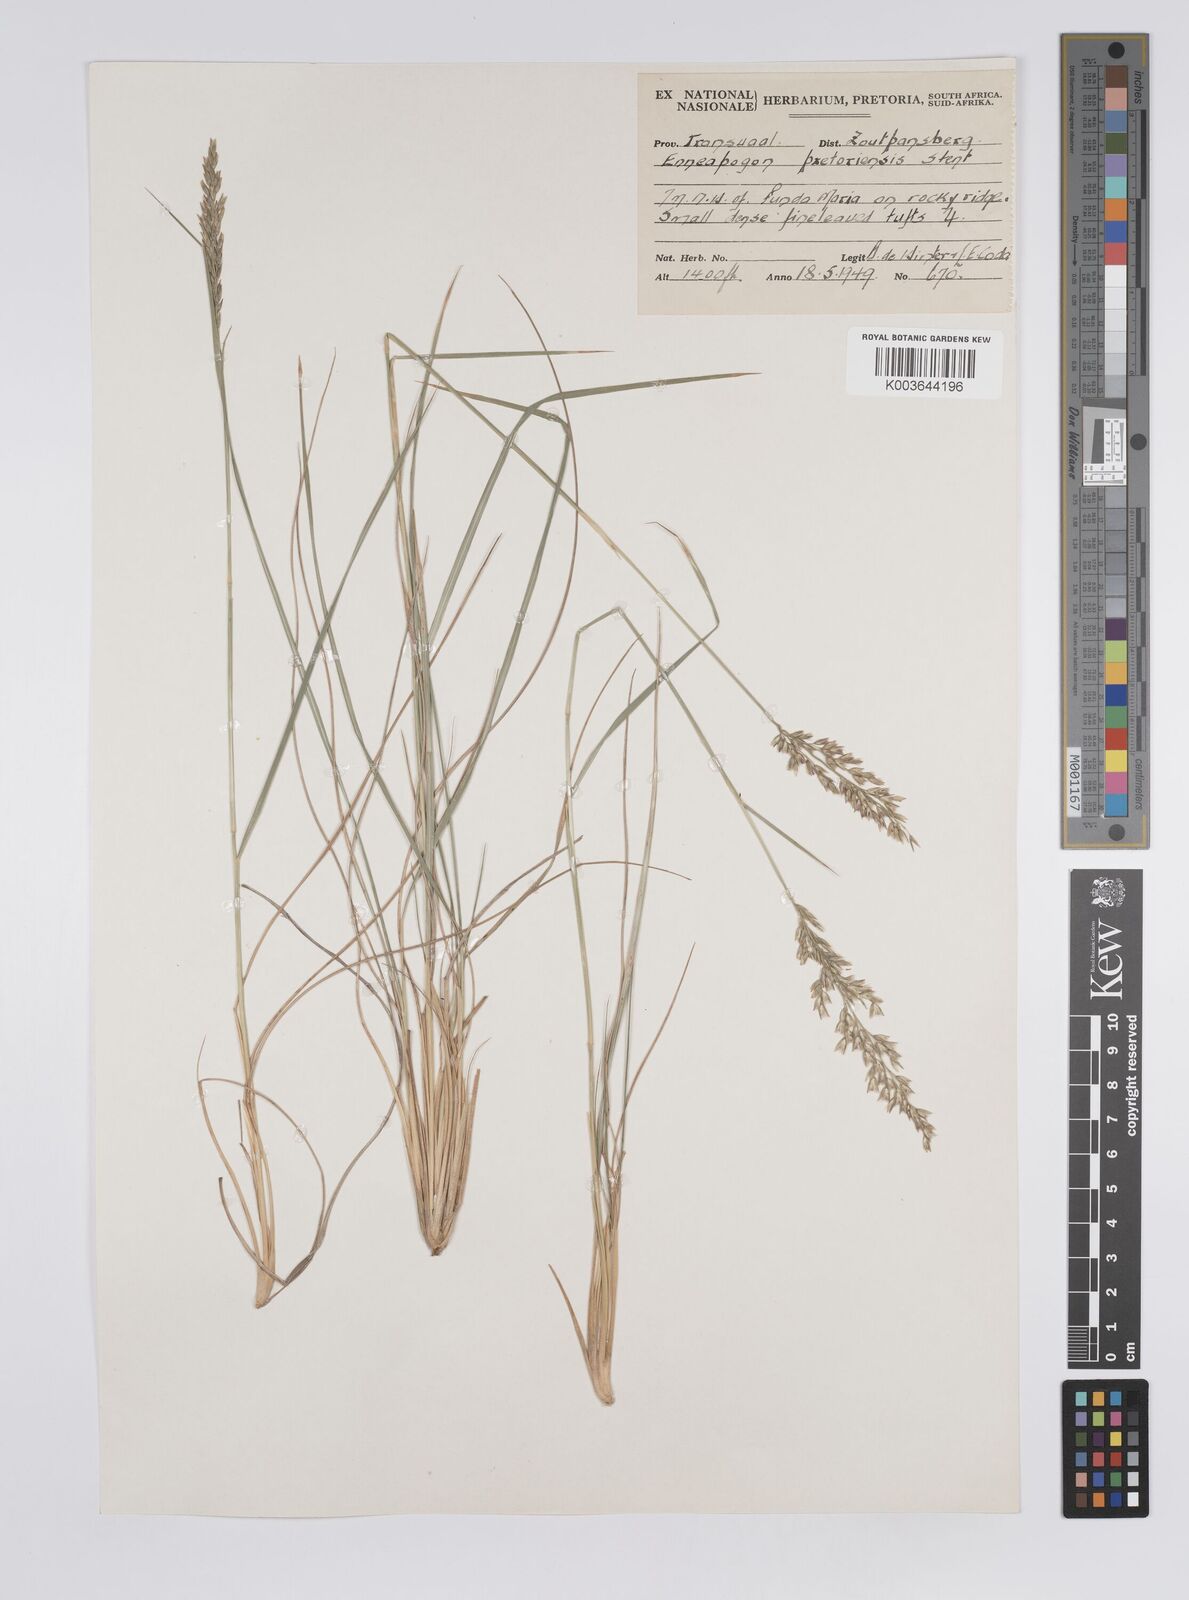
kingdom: Plantae
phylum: Tracheophyta
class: Liliopsida
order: Poales
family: Poaceae
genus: Enneapogon
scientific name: Enneapogon pretoriensis
